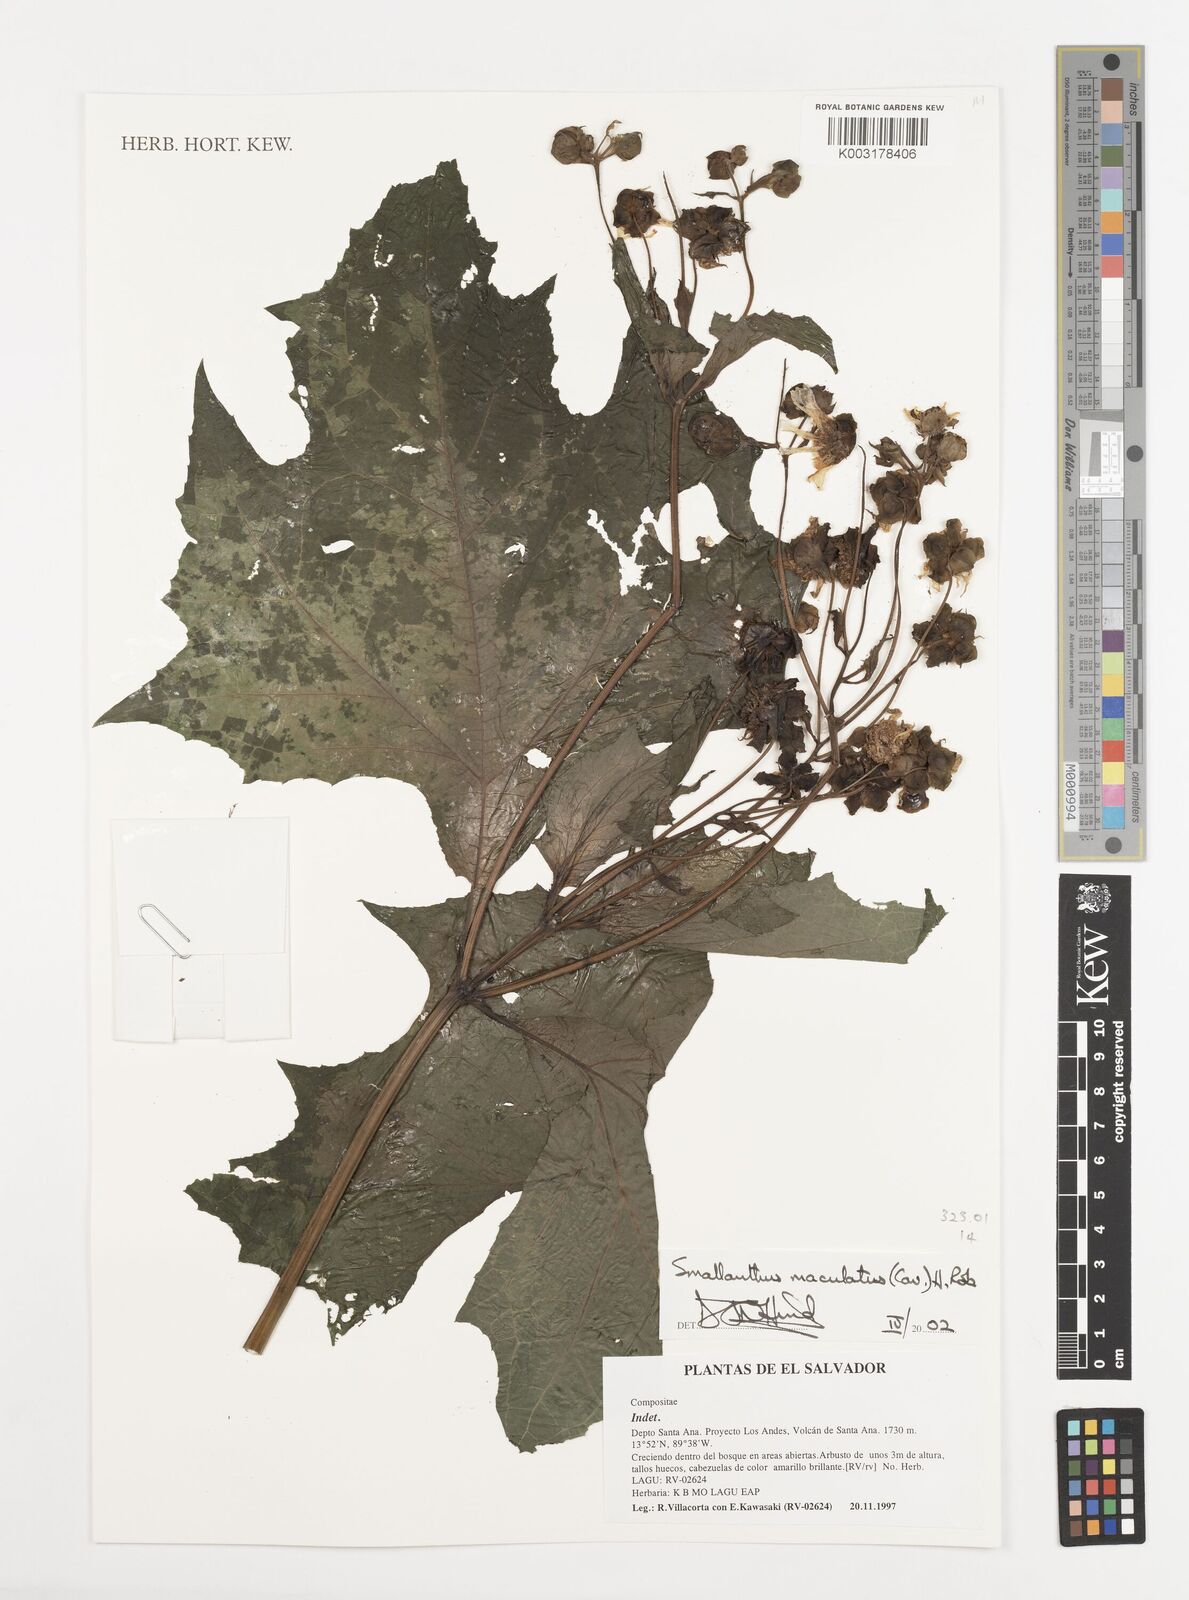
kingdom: Plantae
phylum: Tracheophyta
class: Magnoliopsida
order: Asterales
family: Asteraceae
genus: Smallanthus
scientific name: Smallanthus maculatus
